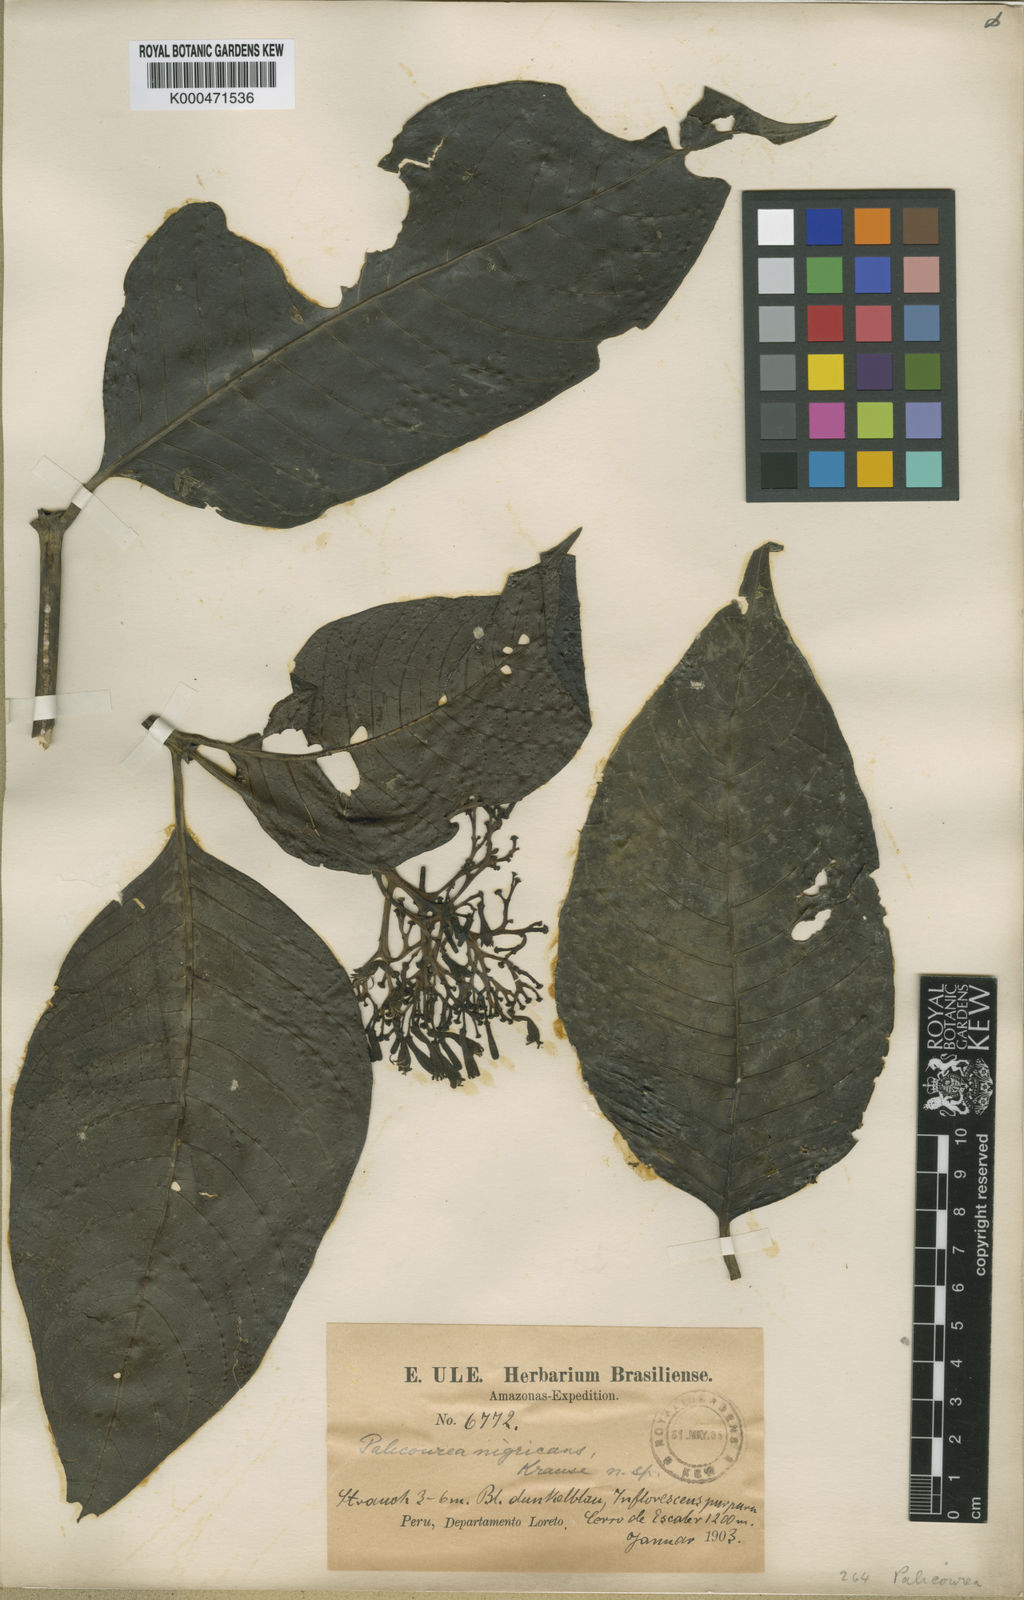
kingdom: Plantae
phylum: Tracheophyta
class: Magnoliopsida
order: Gentianales
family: Rubiaceae
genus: Palicourea
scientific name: Palicourea nigricans
